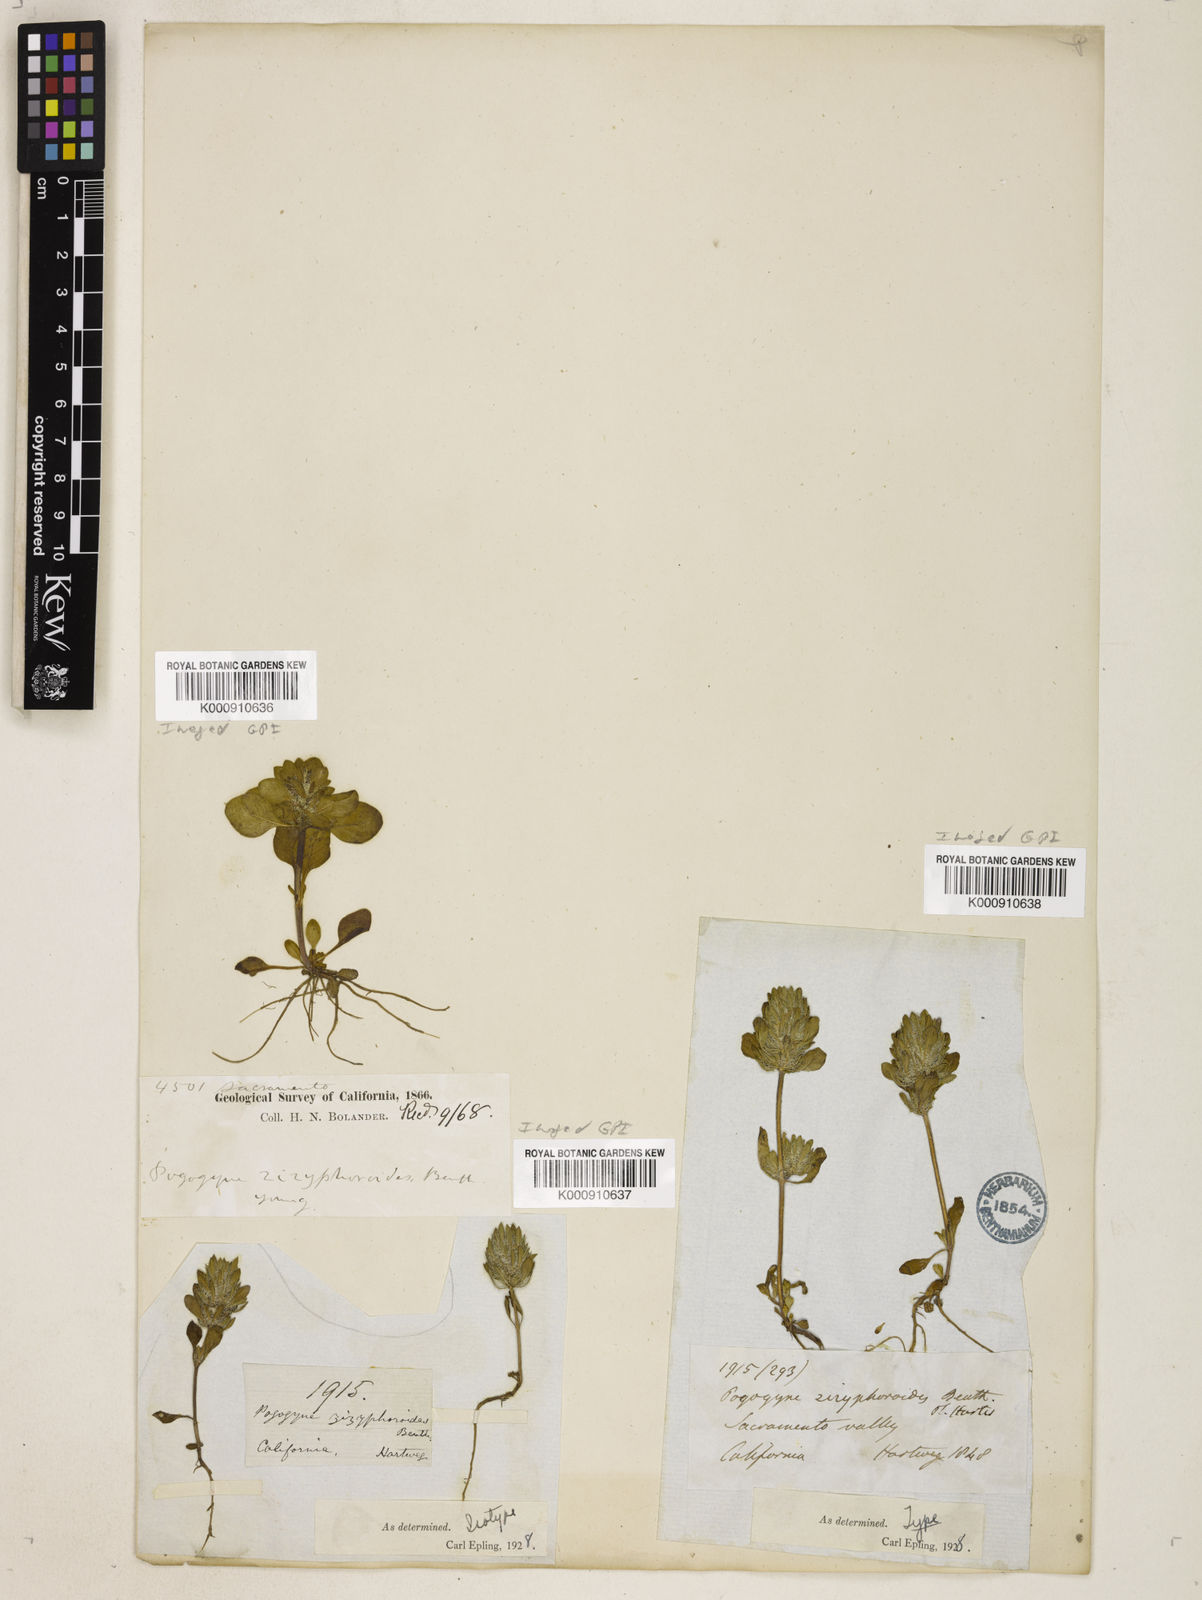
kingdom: Plantae
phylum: Tracheophyta
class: Magnoliopsida
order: Lamiales
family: Lamiaceae
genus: Pogogyne
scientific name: Pogogyne zizyphoroides
